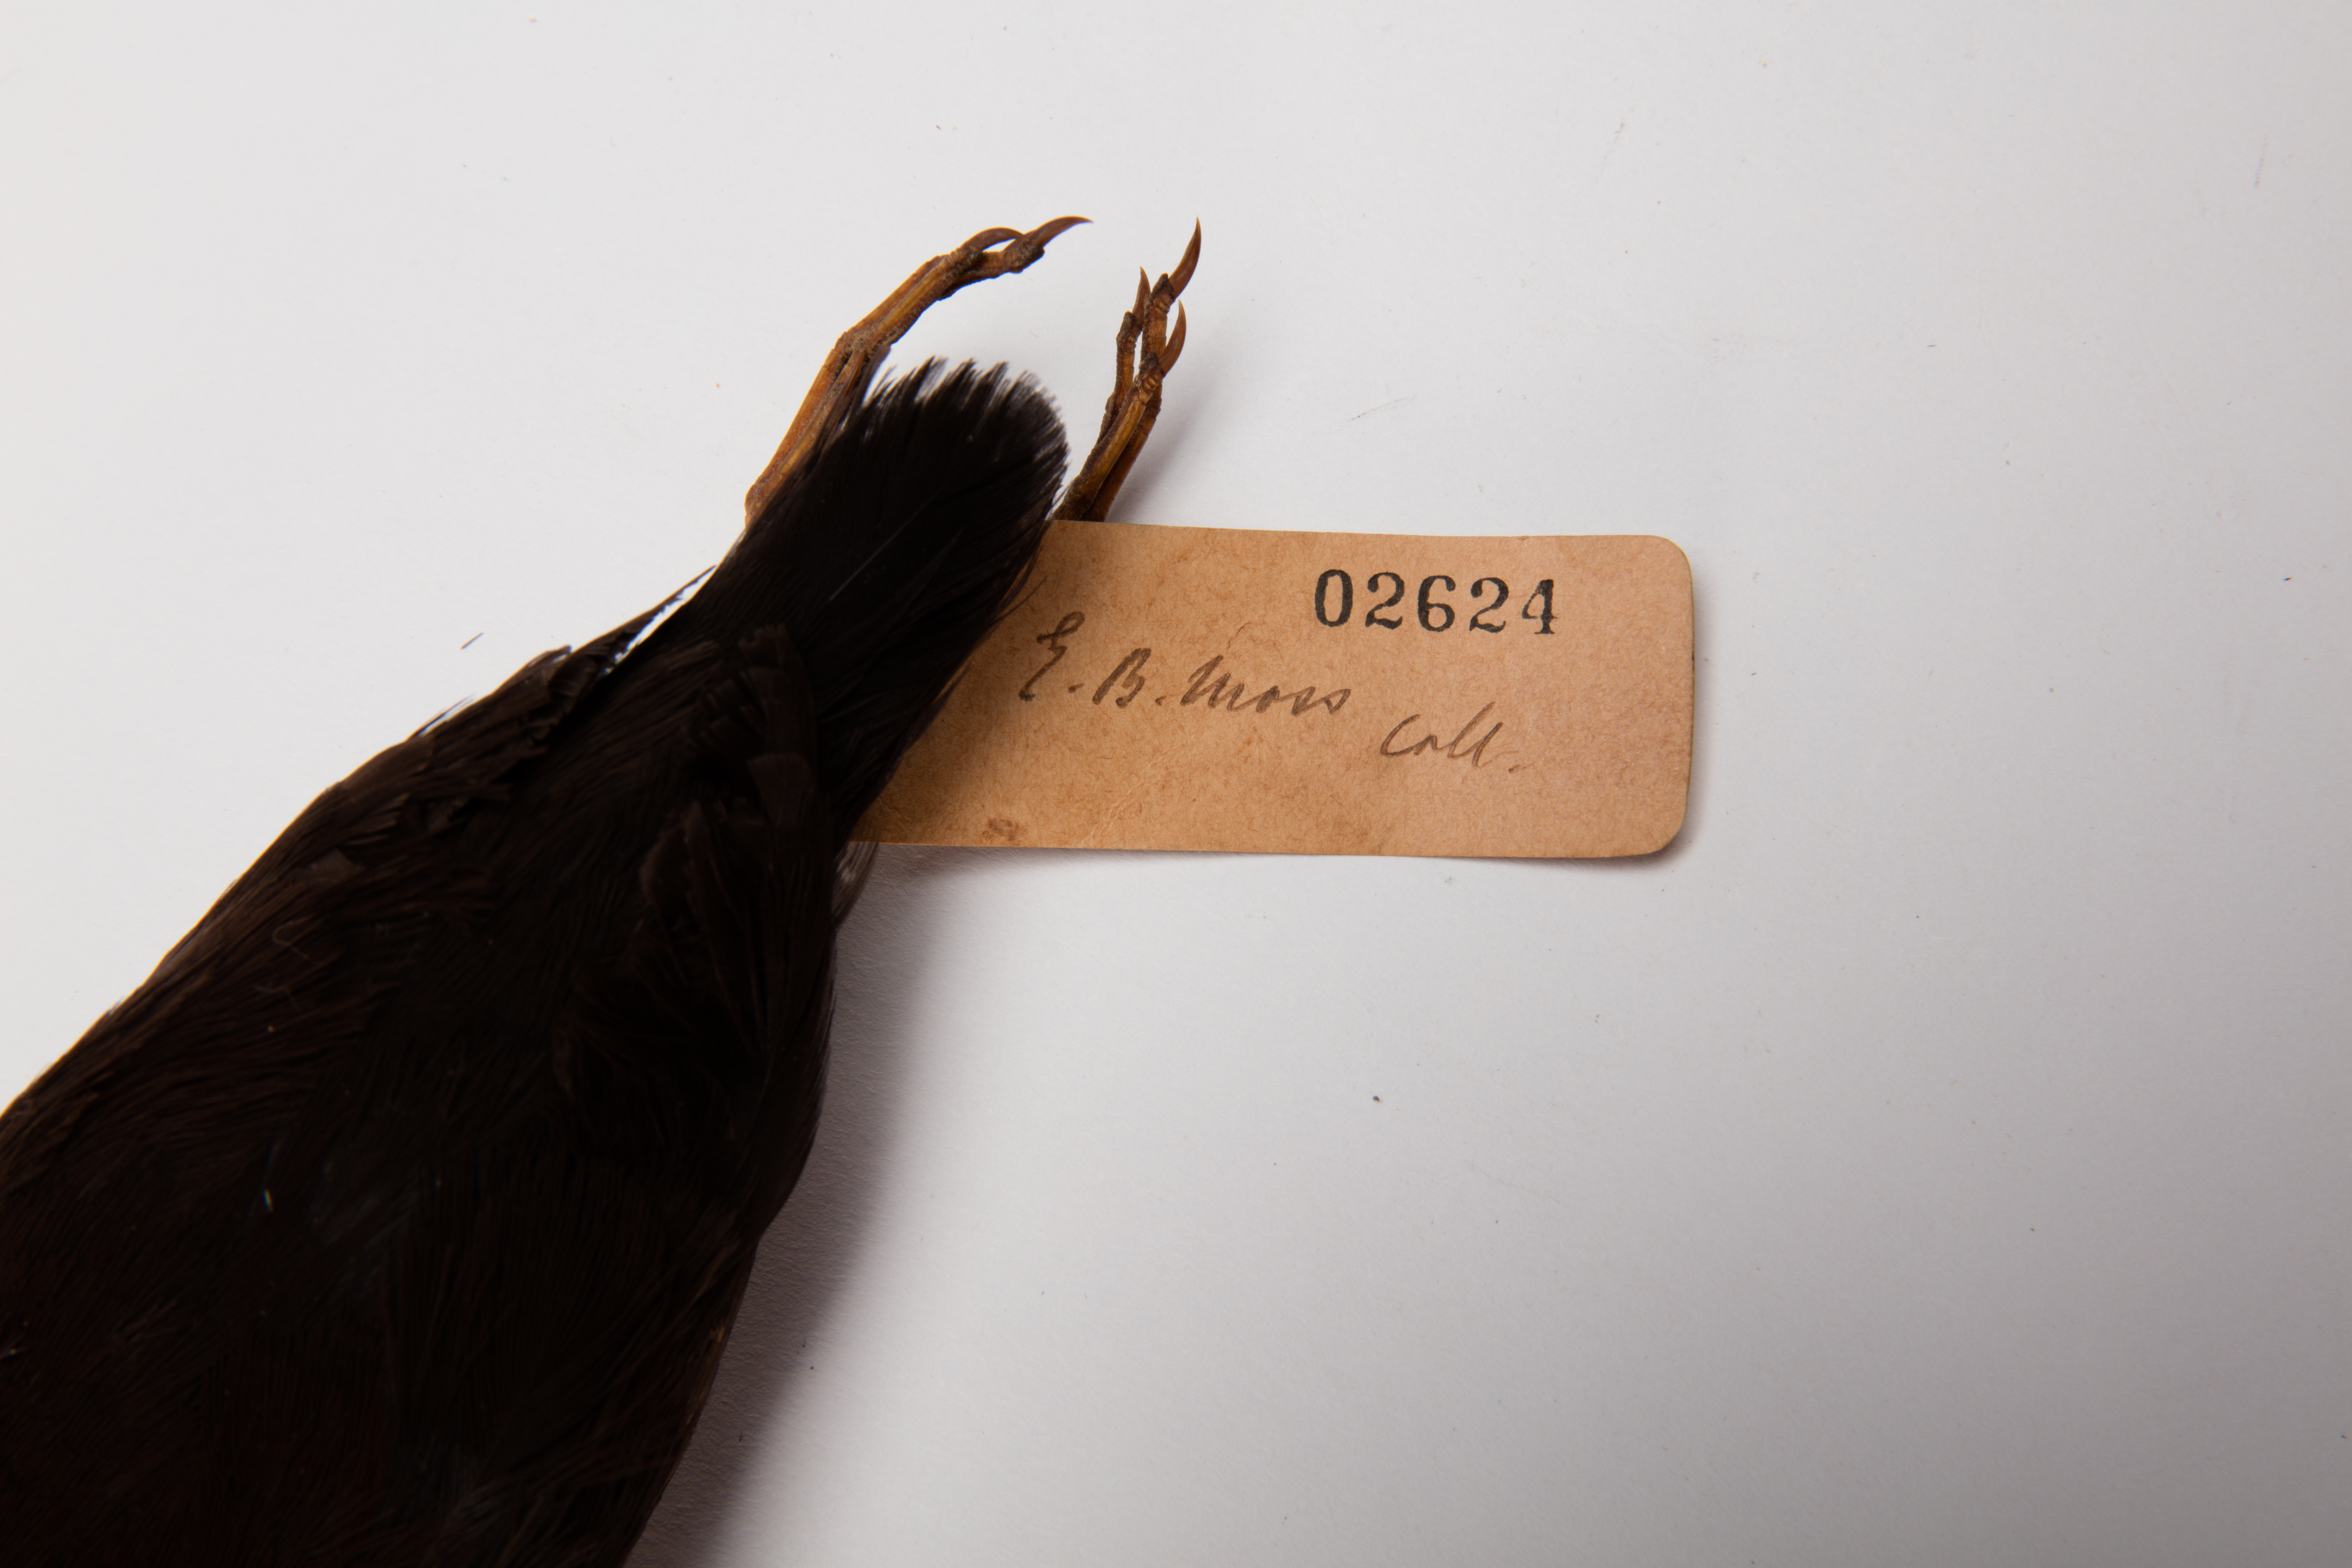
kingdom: Animalia
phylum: Chordata
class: Aves
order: Gruiformes
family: Rallidae
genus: Porzana
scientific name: Porzana tabuensis
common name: Spotless crake
